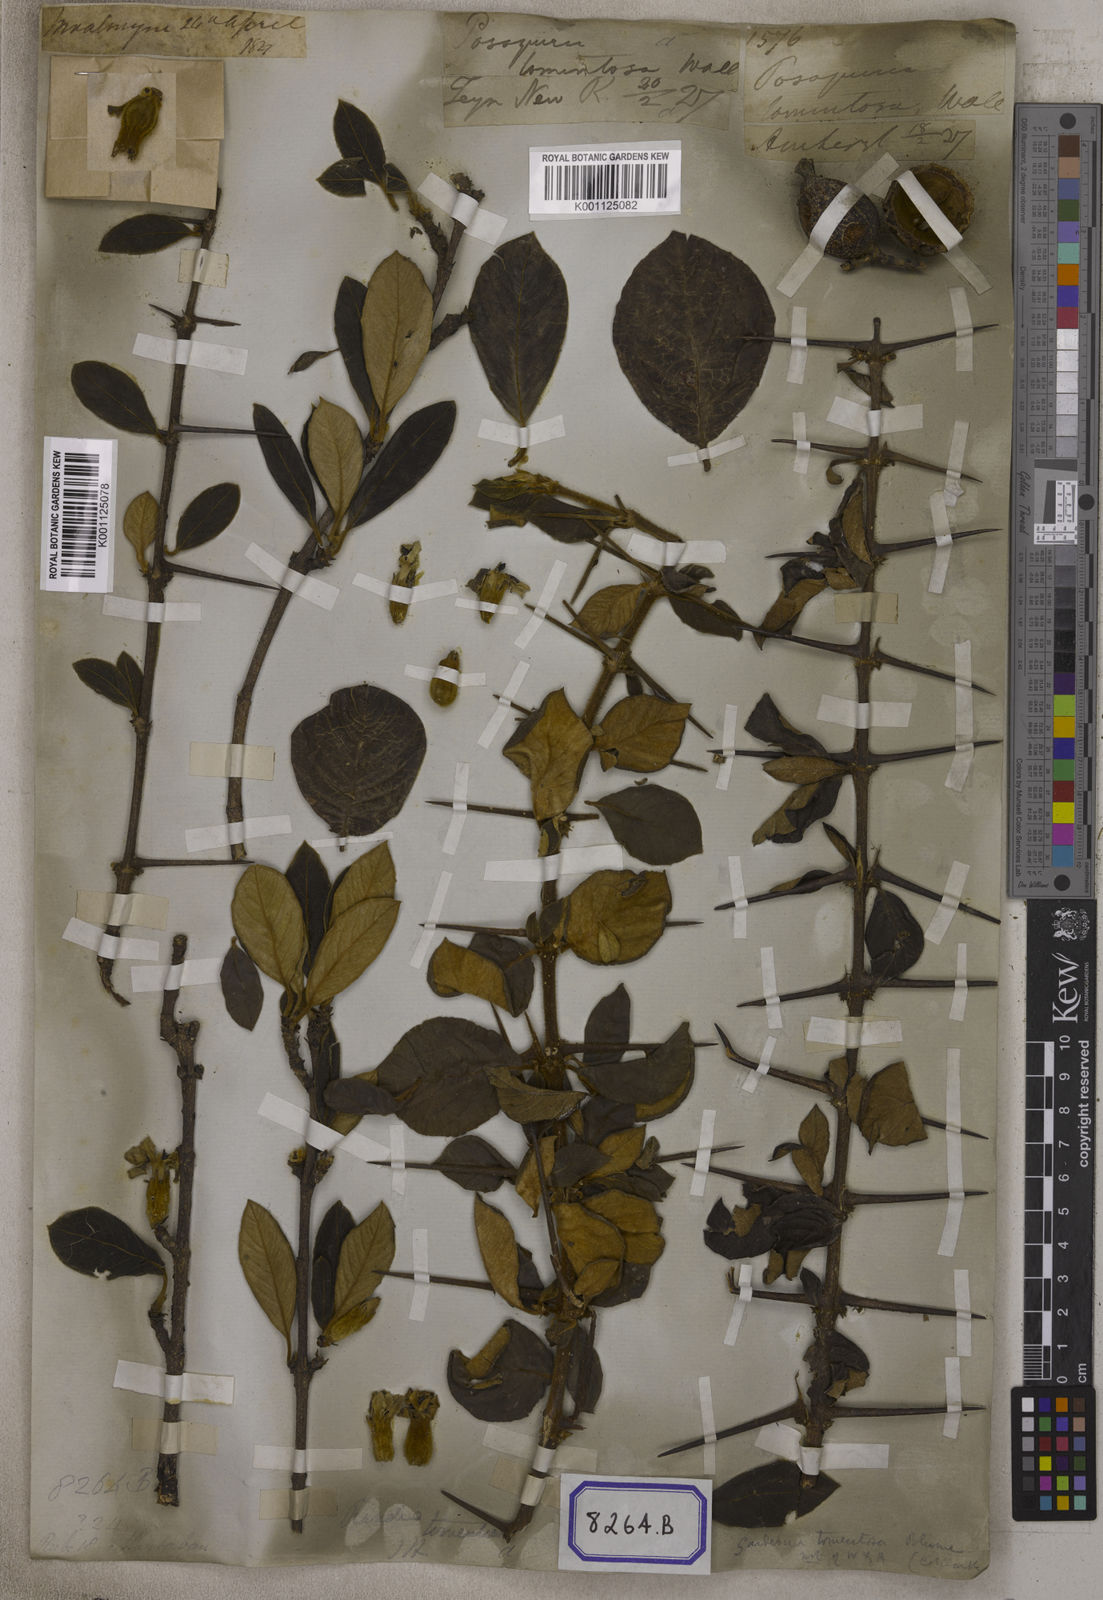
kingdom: Plantae
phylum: Tracheophyta
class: Magnoliopsida
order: Gentianales
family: Rubiaceae
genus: Gardenia
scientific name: Gardenia
